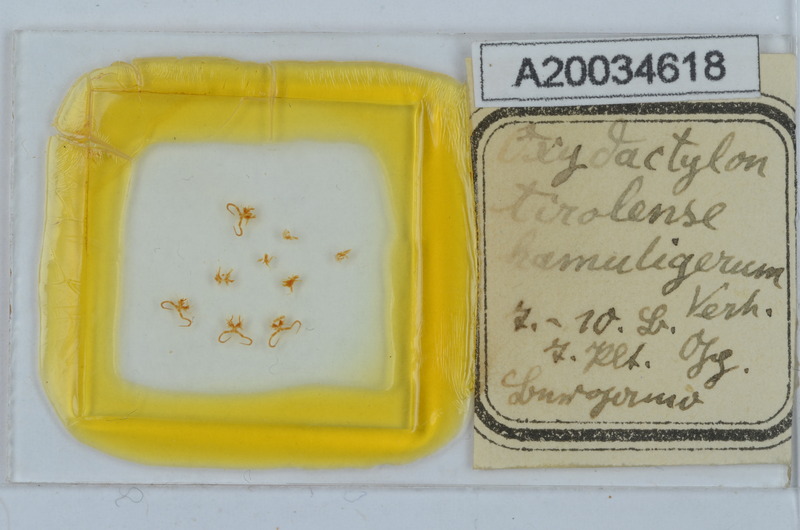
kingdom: Animalia
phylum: Arthropoda
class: Diplopoda
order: Chordeumatida
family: Craspedosomatidae
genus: Iulogona
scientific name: Iulogona hamuligerum
